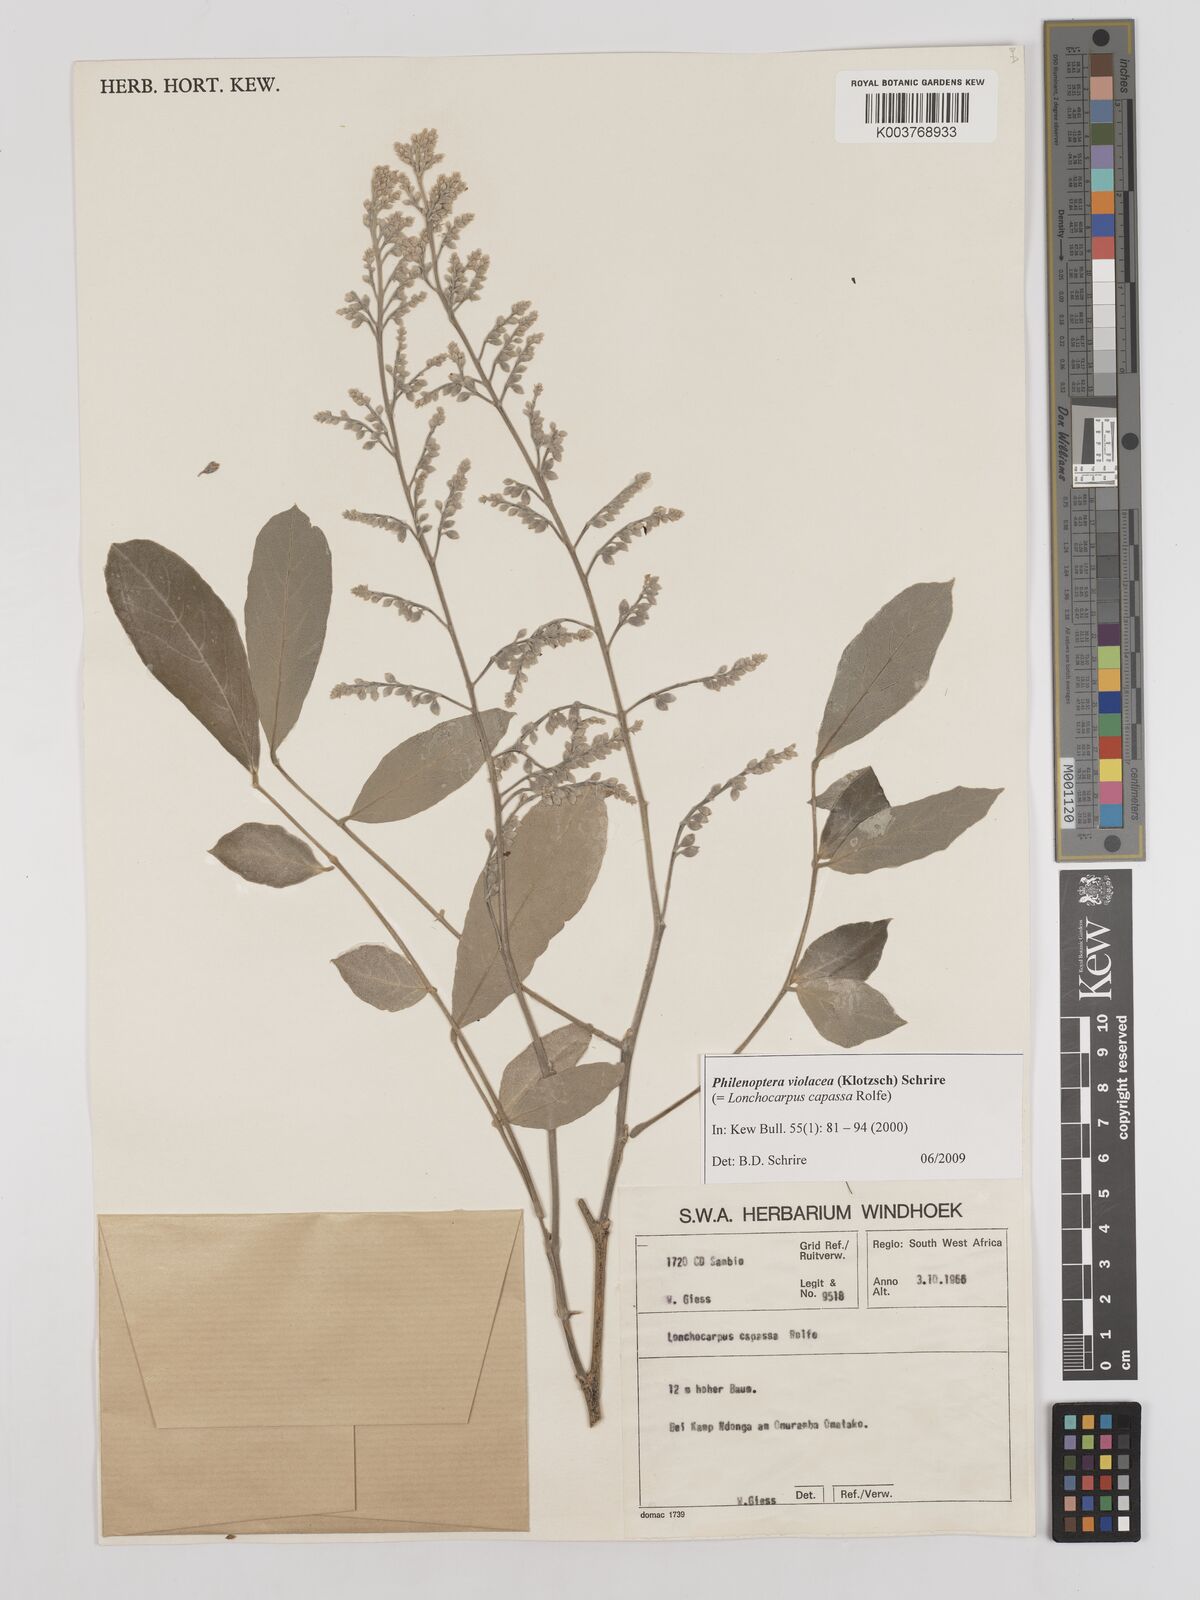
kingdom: Plantae
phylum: Tracheophyta
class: Magnoliopsida
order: Fabales
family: Fabaceae
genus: Philenoptera
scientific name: Philenoptera violacea
